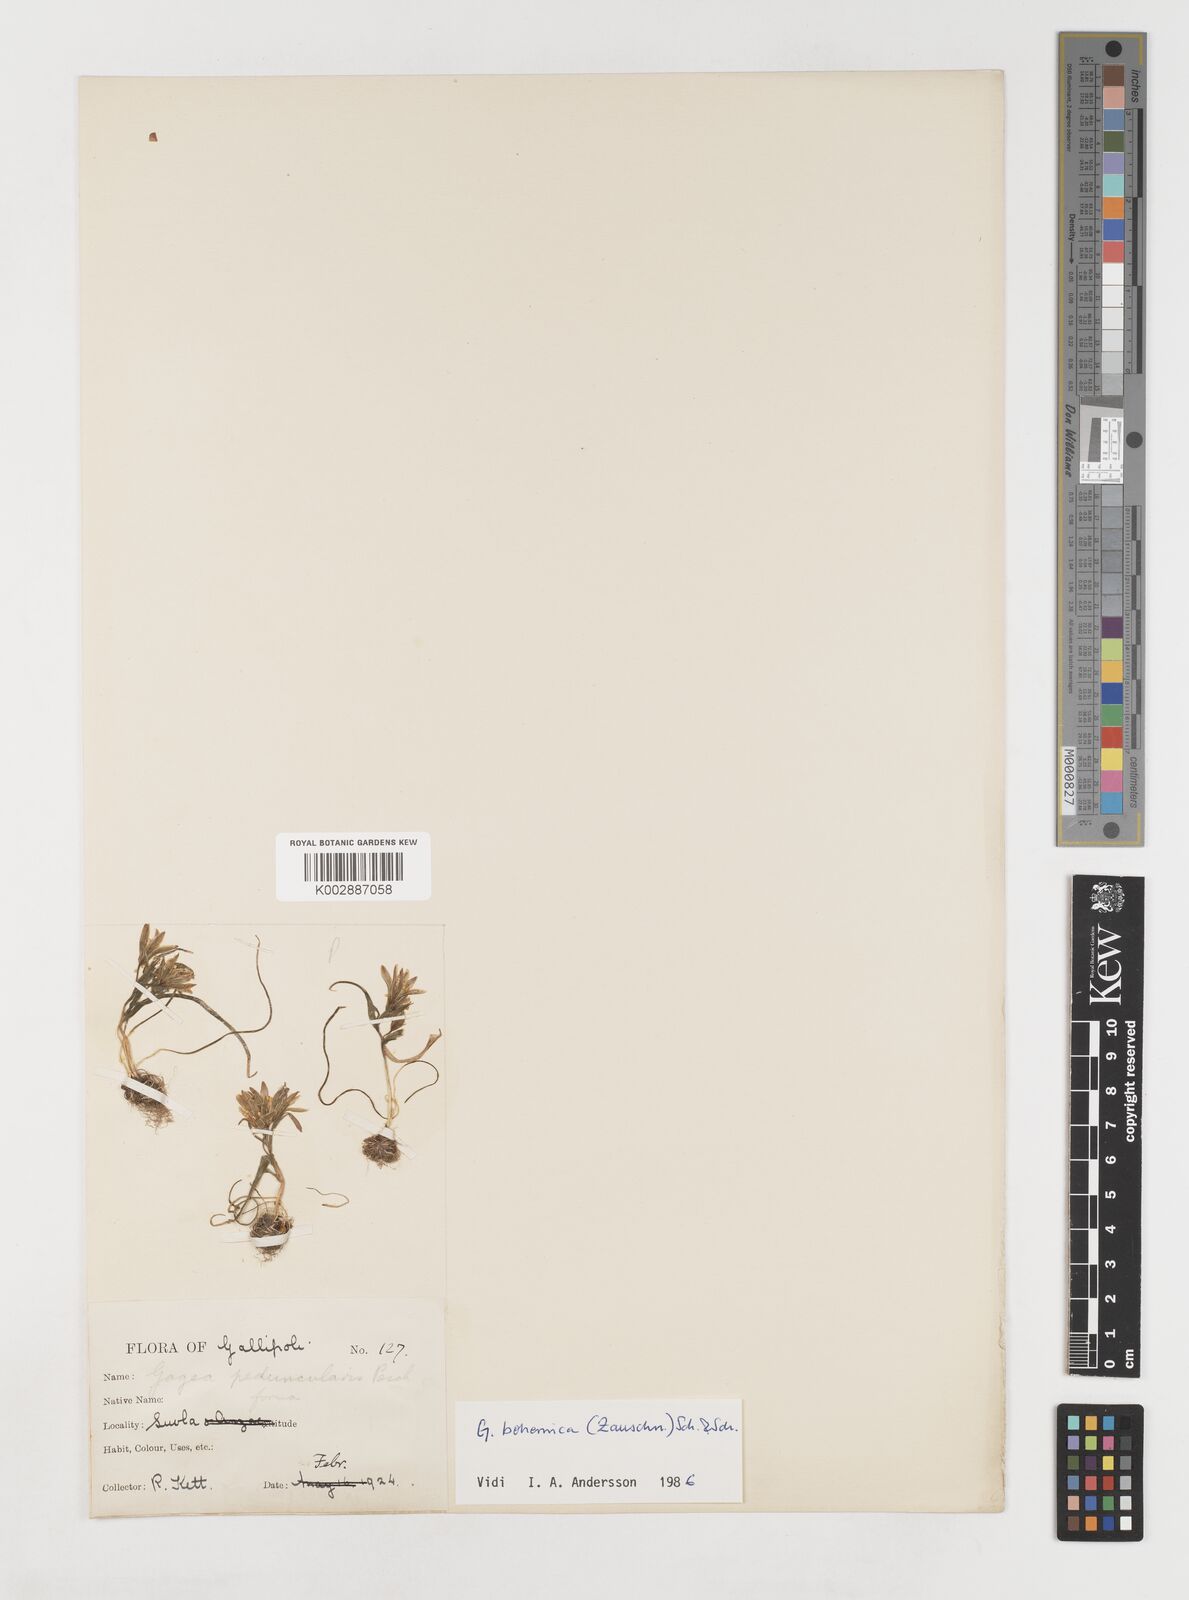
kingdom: Plantae
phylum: Tracheophyta
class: Liliopsida
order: Liliales
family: Liliaceae
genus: Gagea
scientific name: Gagea peduncularis
